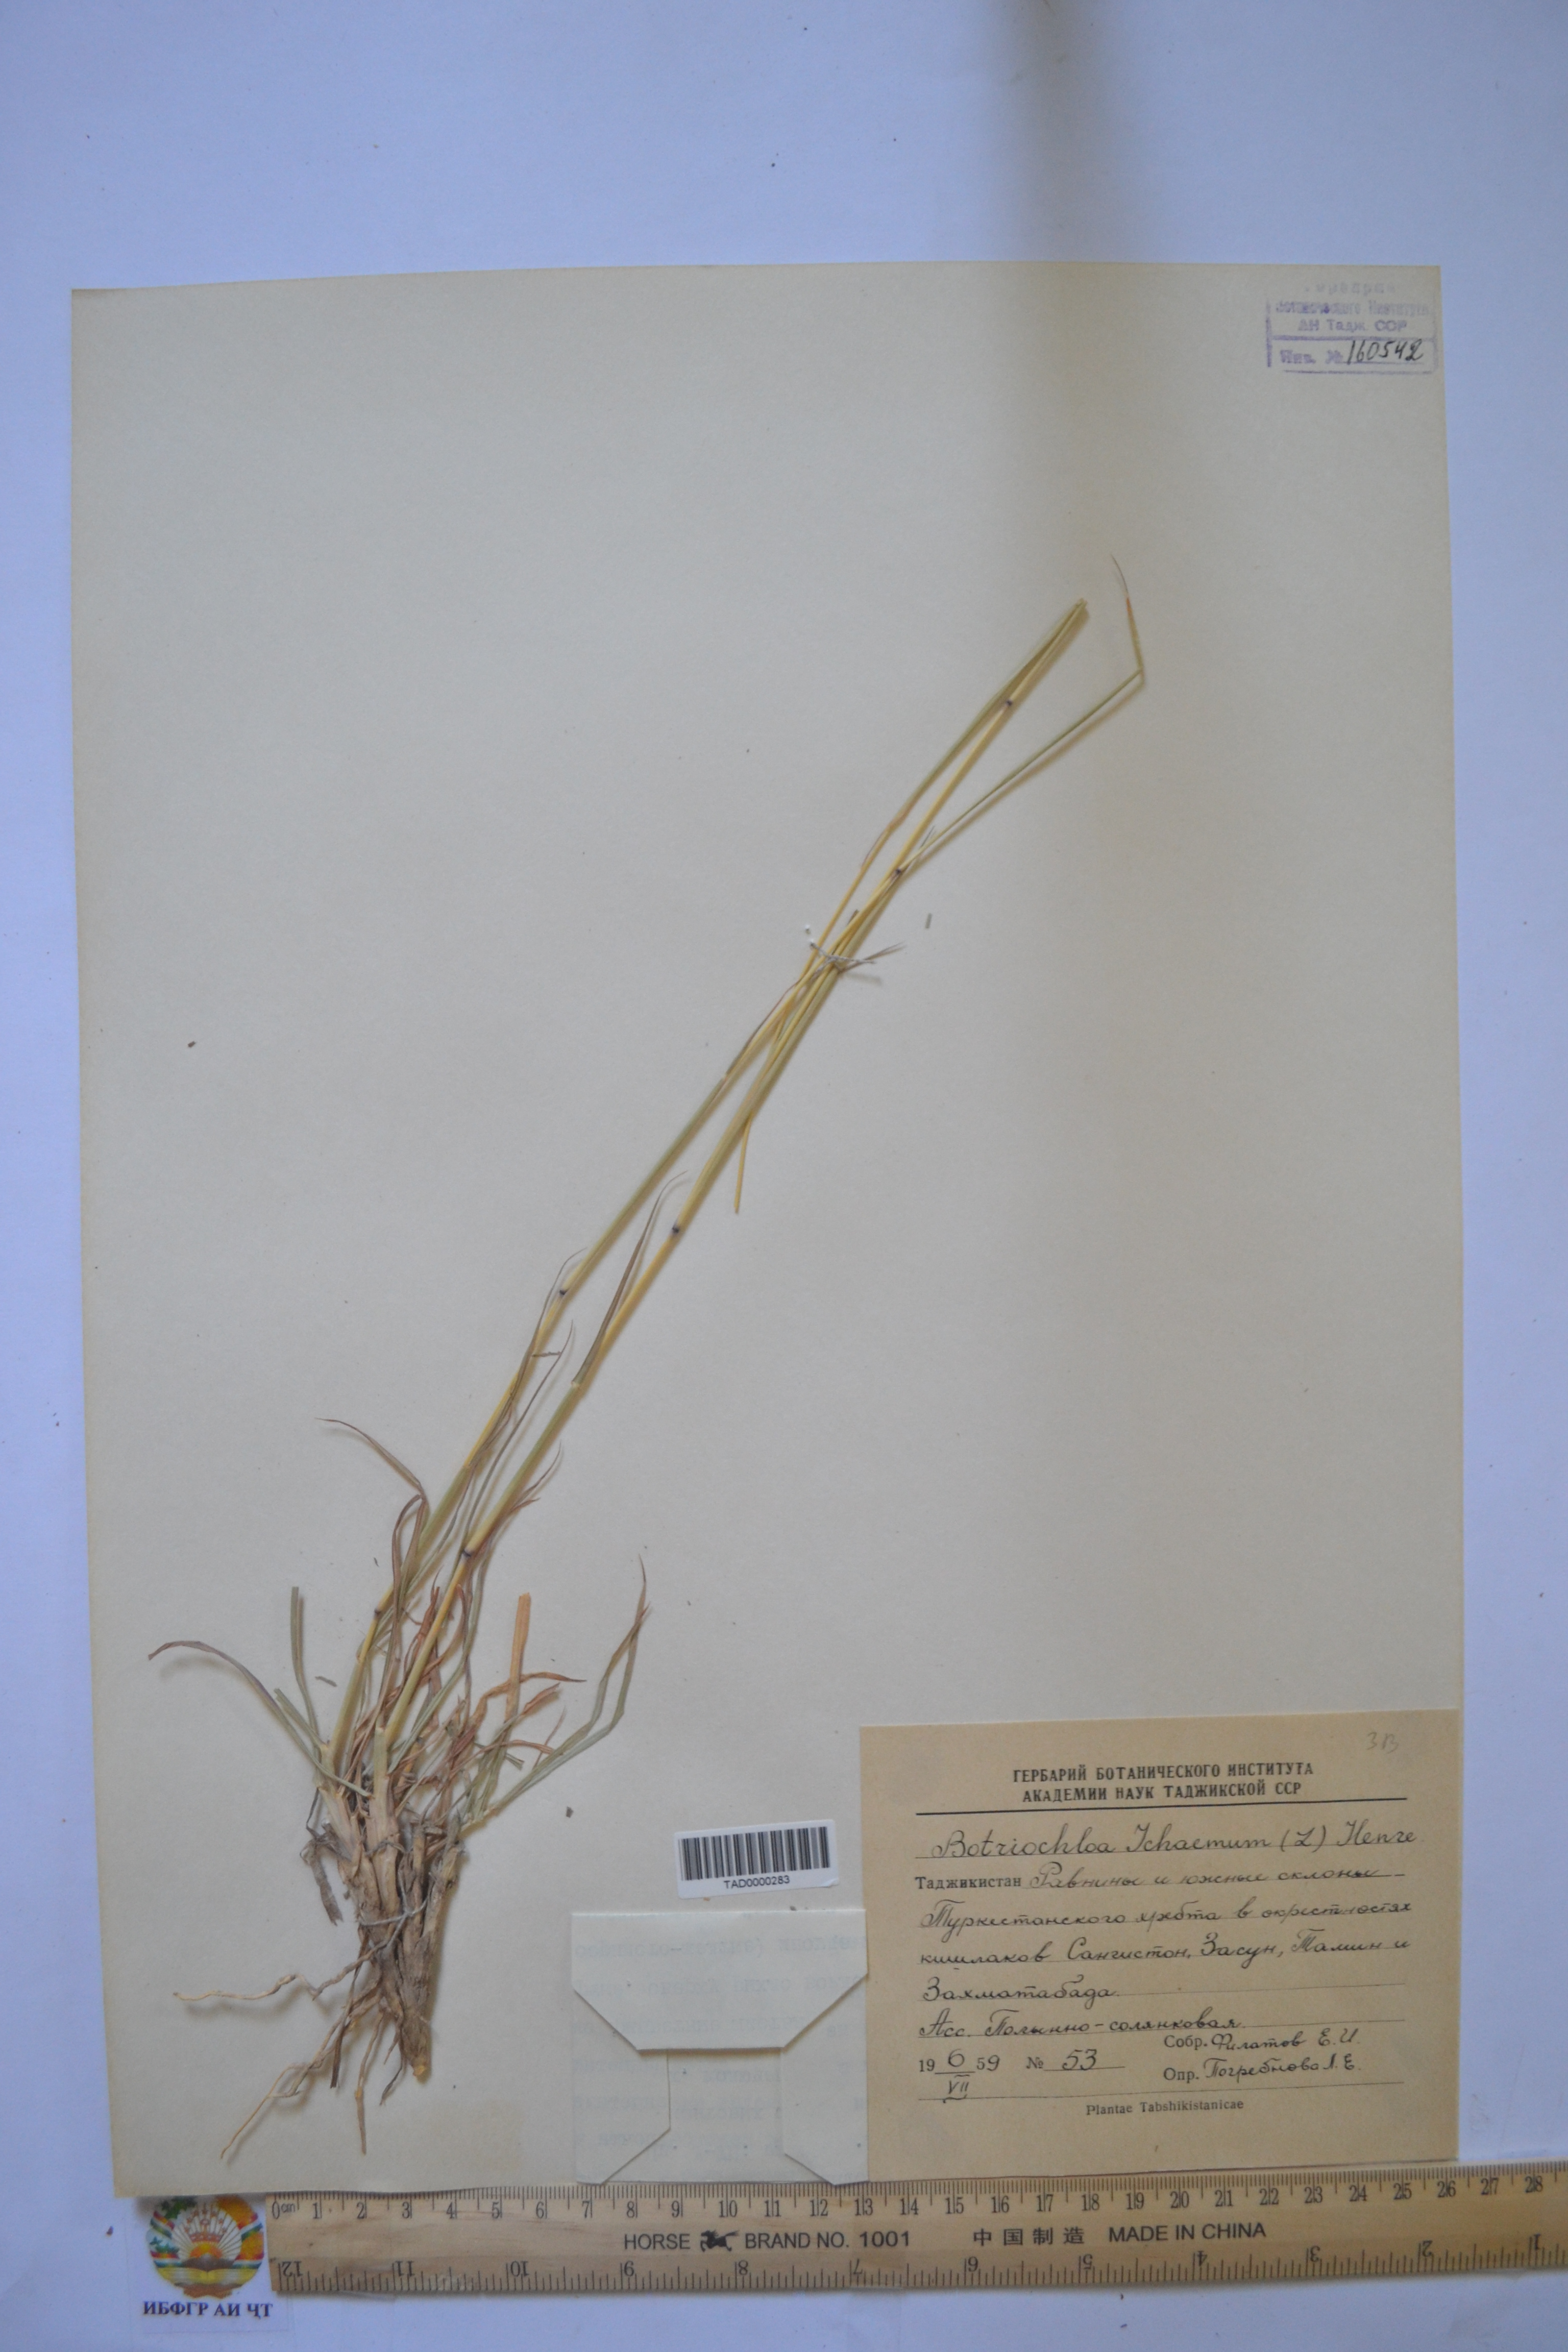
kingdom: Plantae
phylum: Tracheophyta
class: Liliopsida
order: Poales
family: Poaceae
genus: Bothriochloa
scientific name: Bothriochloa ischaemum
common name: Yellow bluestem
